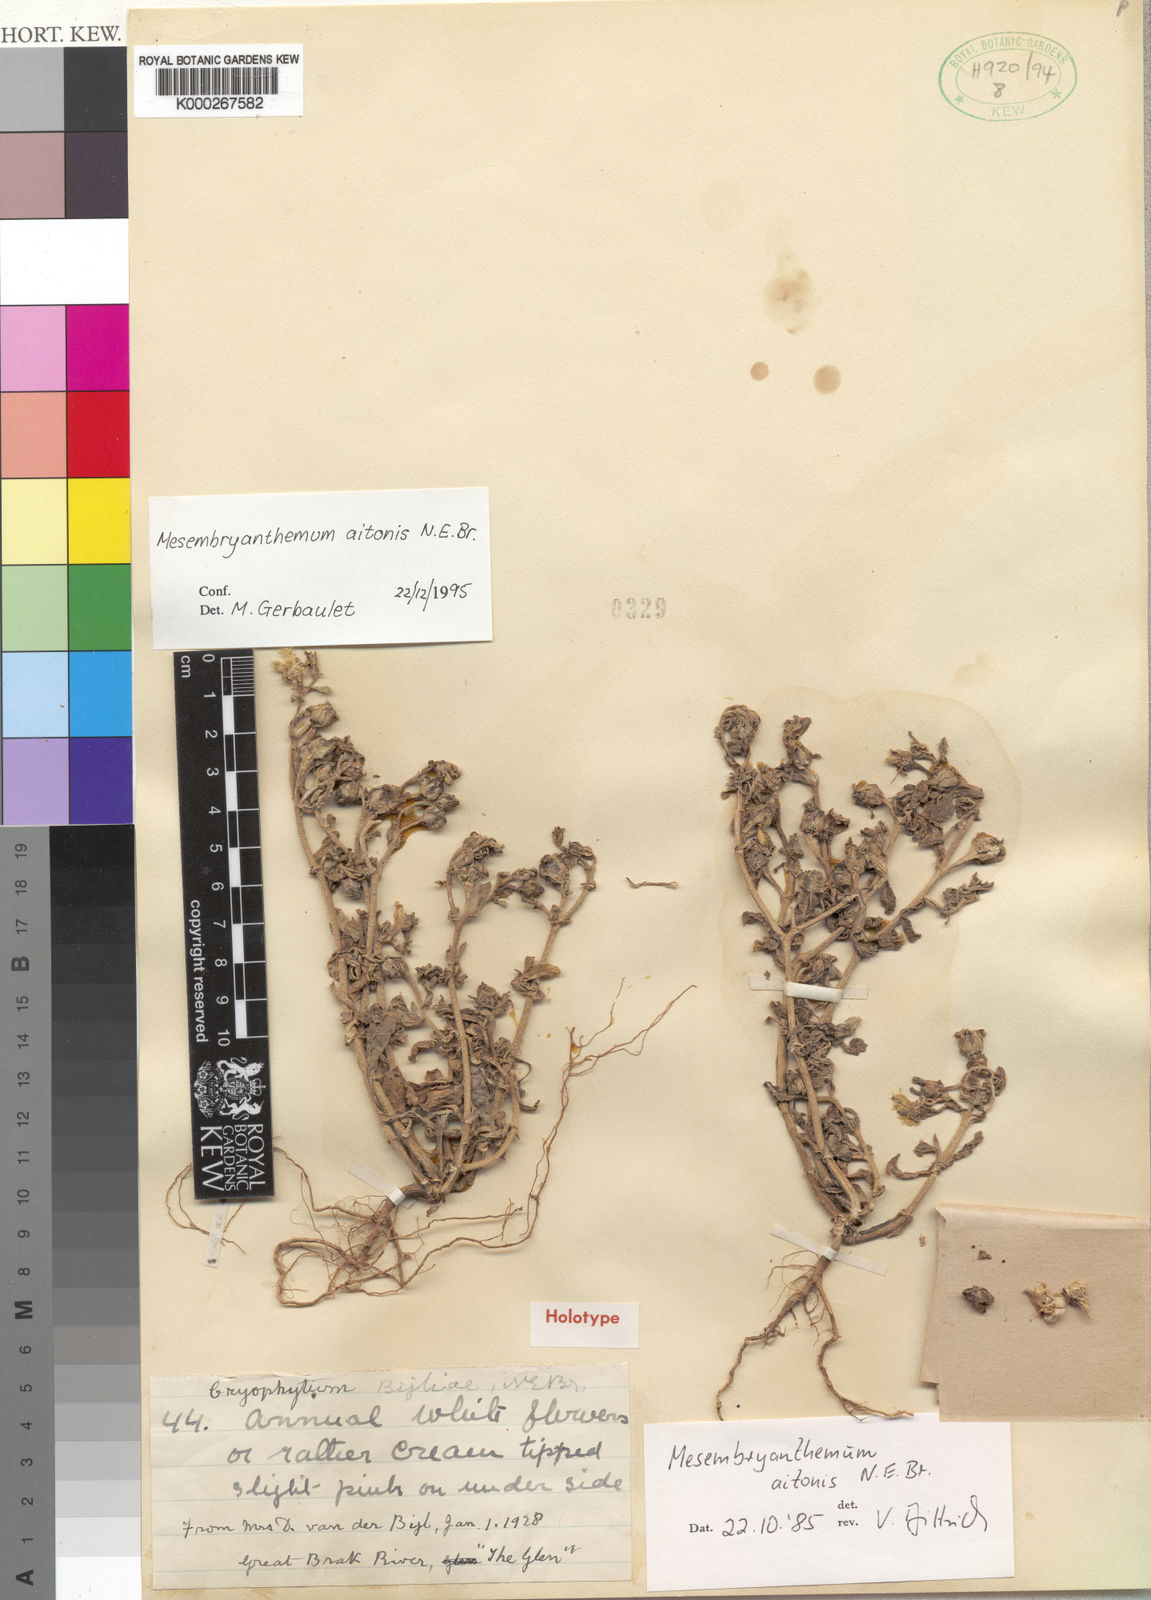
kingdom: Plantae
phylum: Tracheophyta
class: Magnoliopsida
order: Caryophyllales
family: Aizoaceae
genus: Mesembryanthemum
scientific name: Mesembryanthemum aitonis
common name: Angled iceplant
